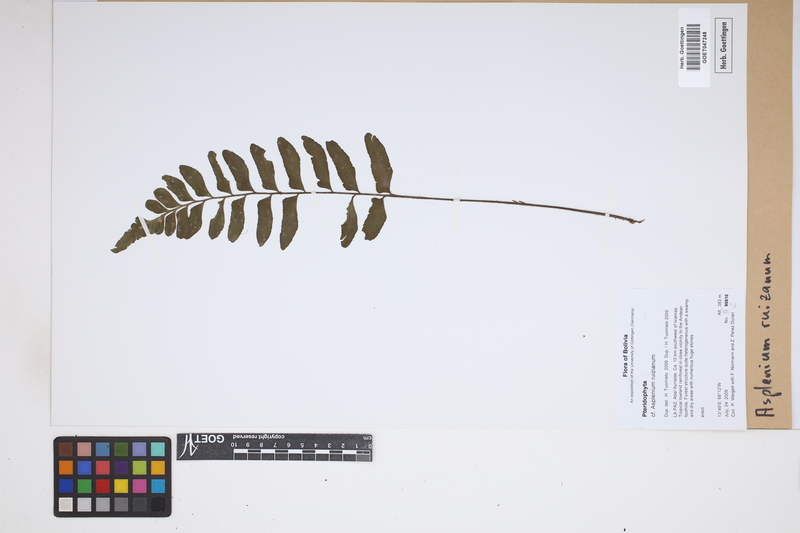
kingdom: Plantae
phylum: Tracheophyta
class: Polypodiopsida
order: Polypodiales
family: Aspleniaceae
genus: Asplenium
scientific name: Asplenium ruizianum
